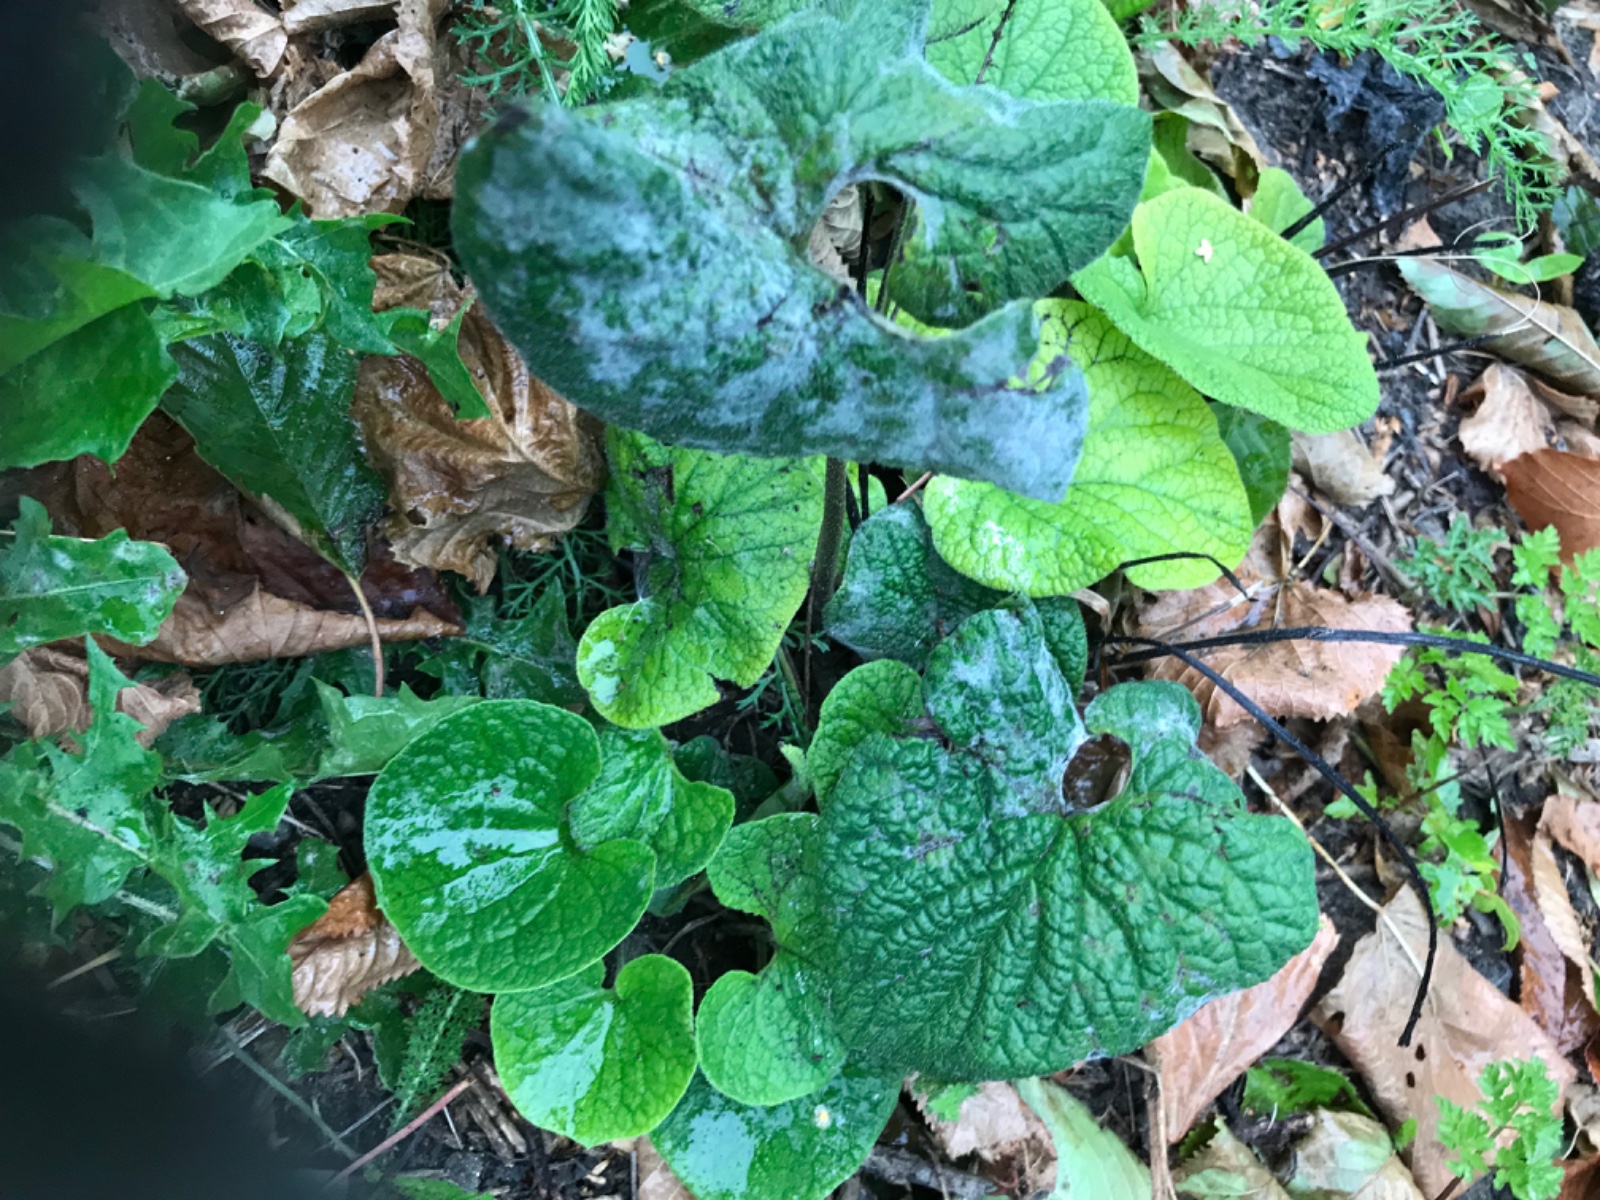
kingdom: Fungi
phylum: Ascomycota
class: Leotiomycetes
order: Helotiales
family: Erysiphaceae
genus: Golovinomyces
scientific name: Golovinomyces
